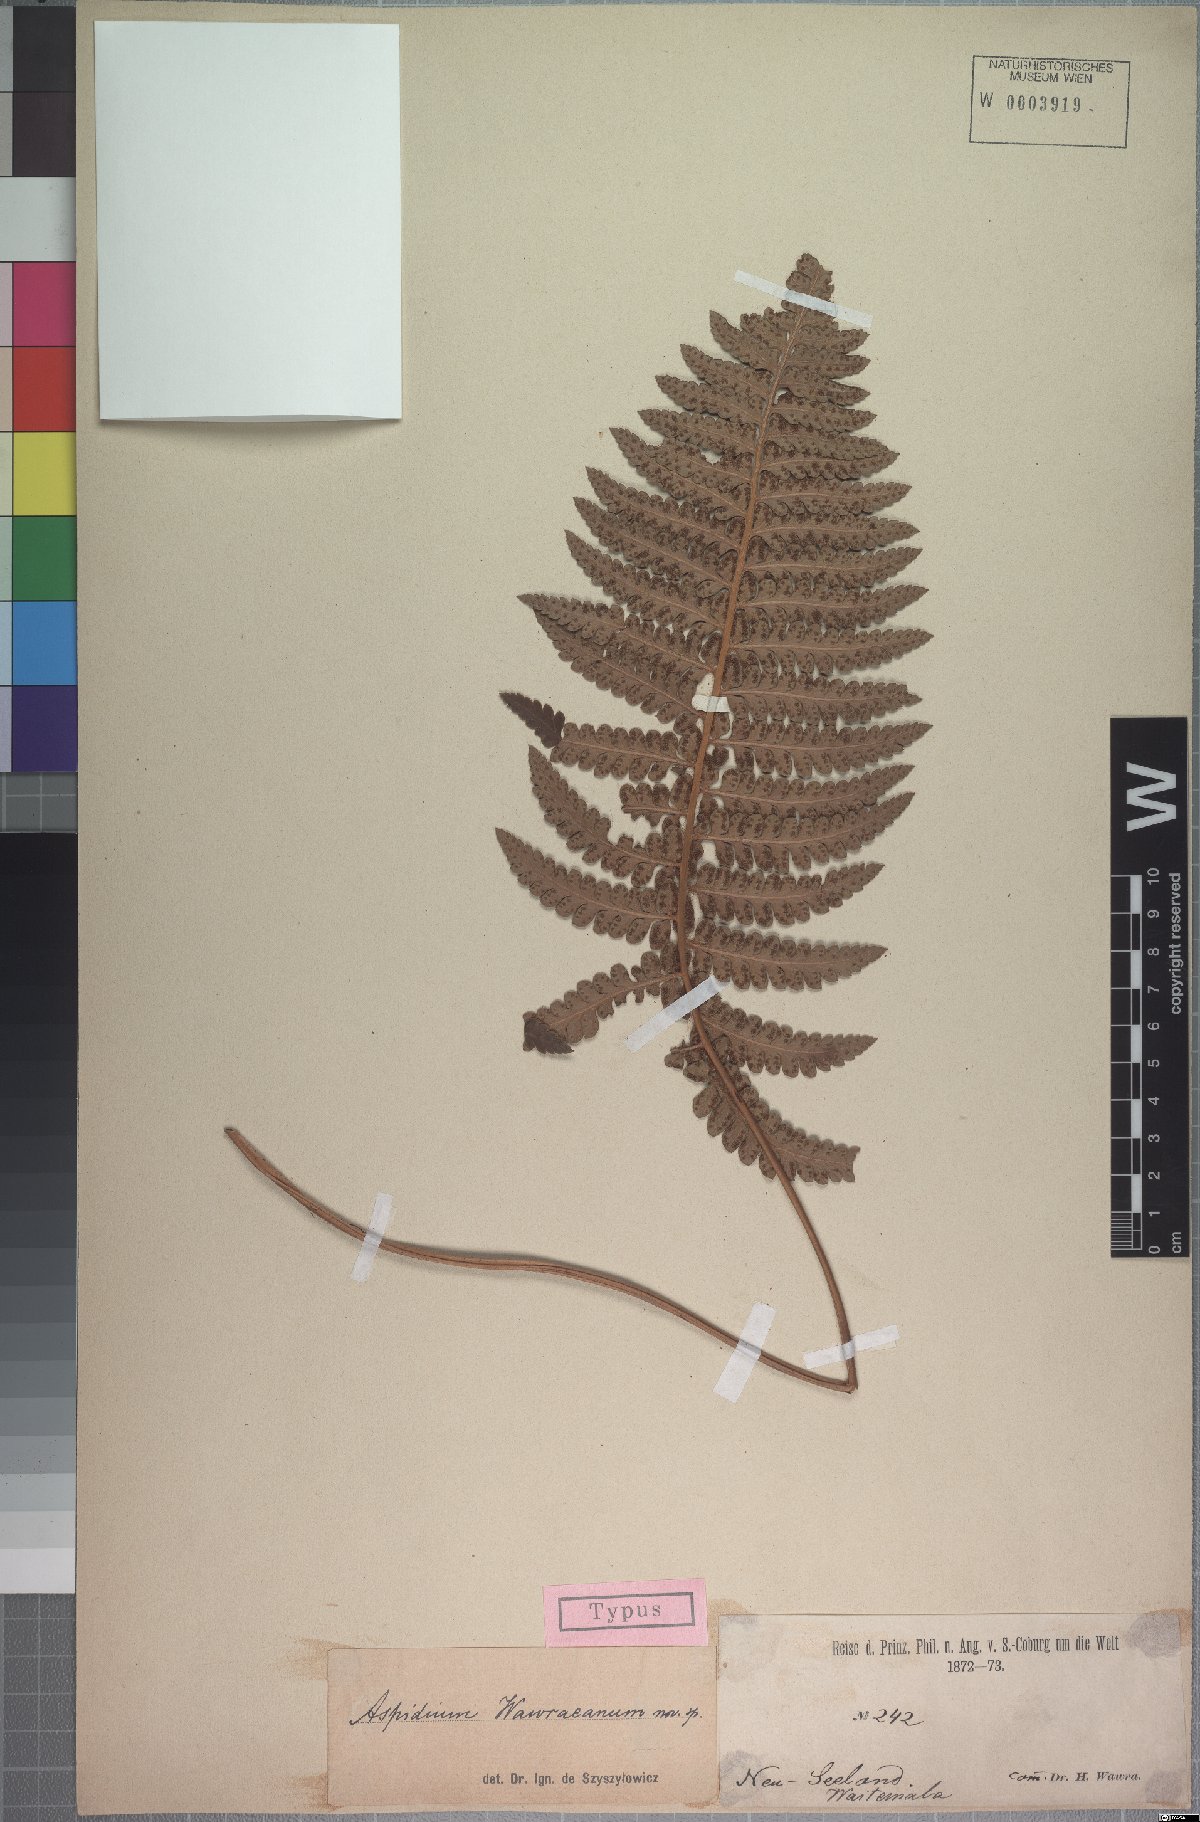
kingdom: Plantae
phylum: Tracheophyta
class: Polypodiopsida
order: Polypodiales
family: Dryopteridaceae
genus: Polystichum
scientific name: Polystichum neozelandicum
